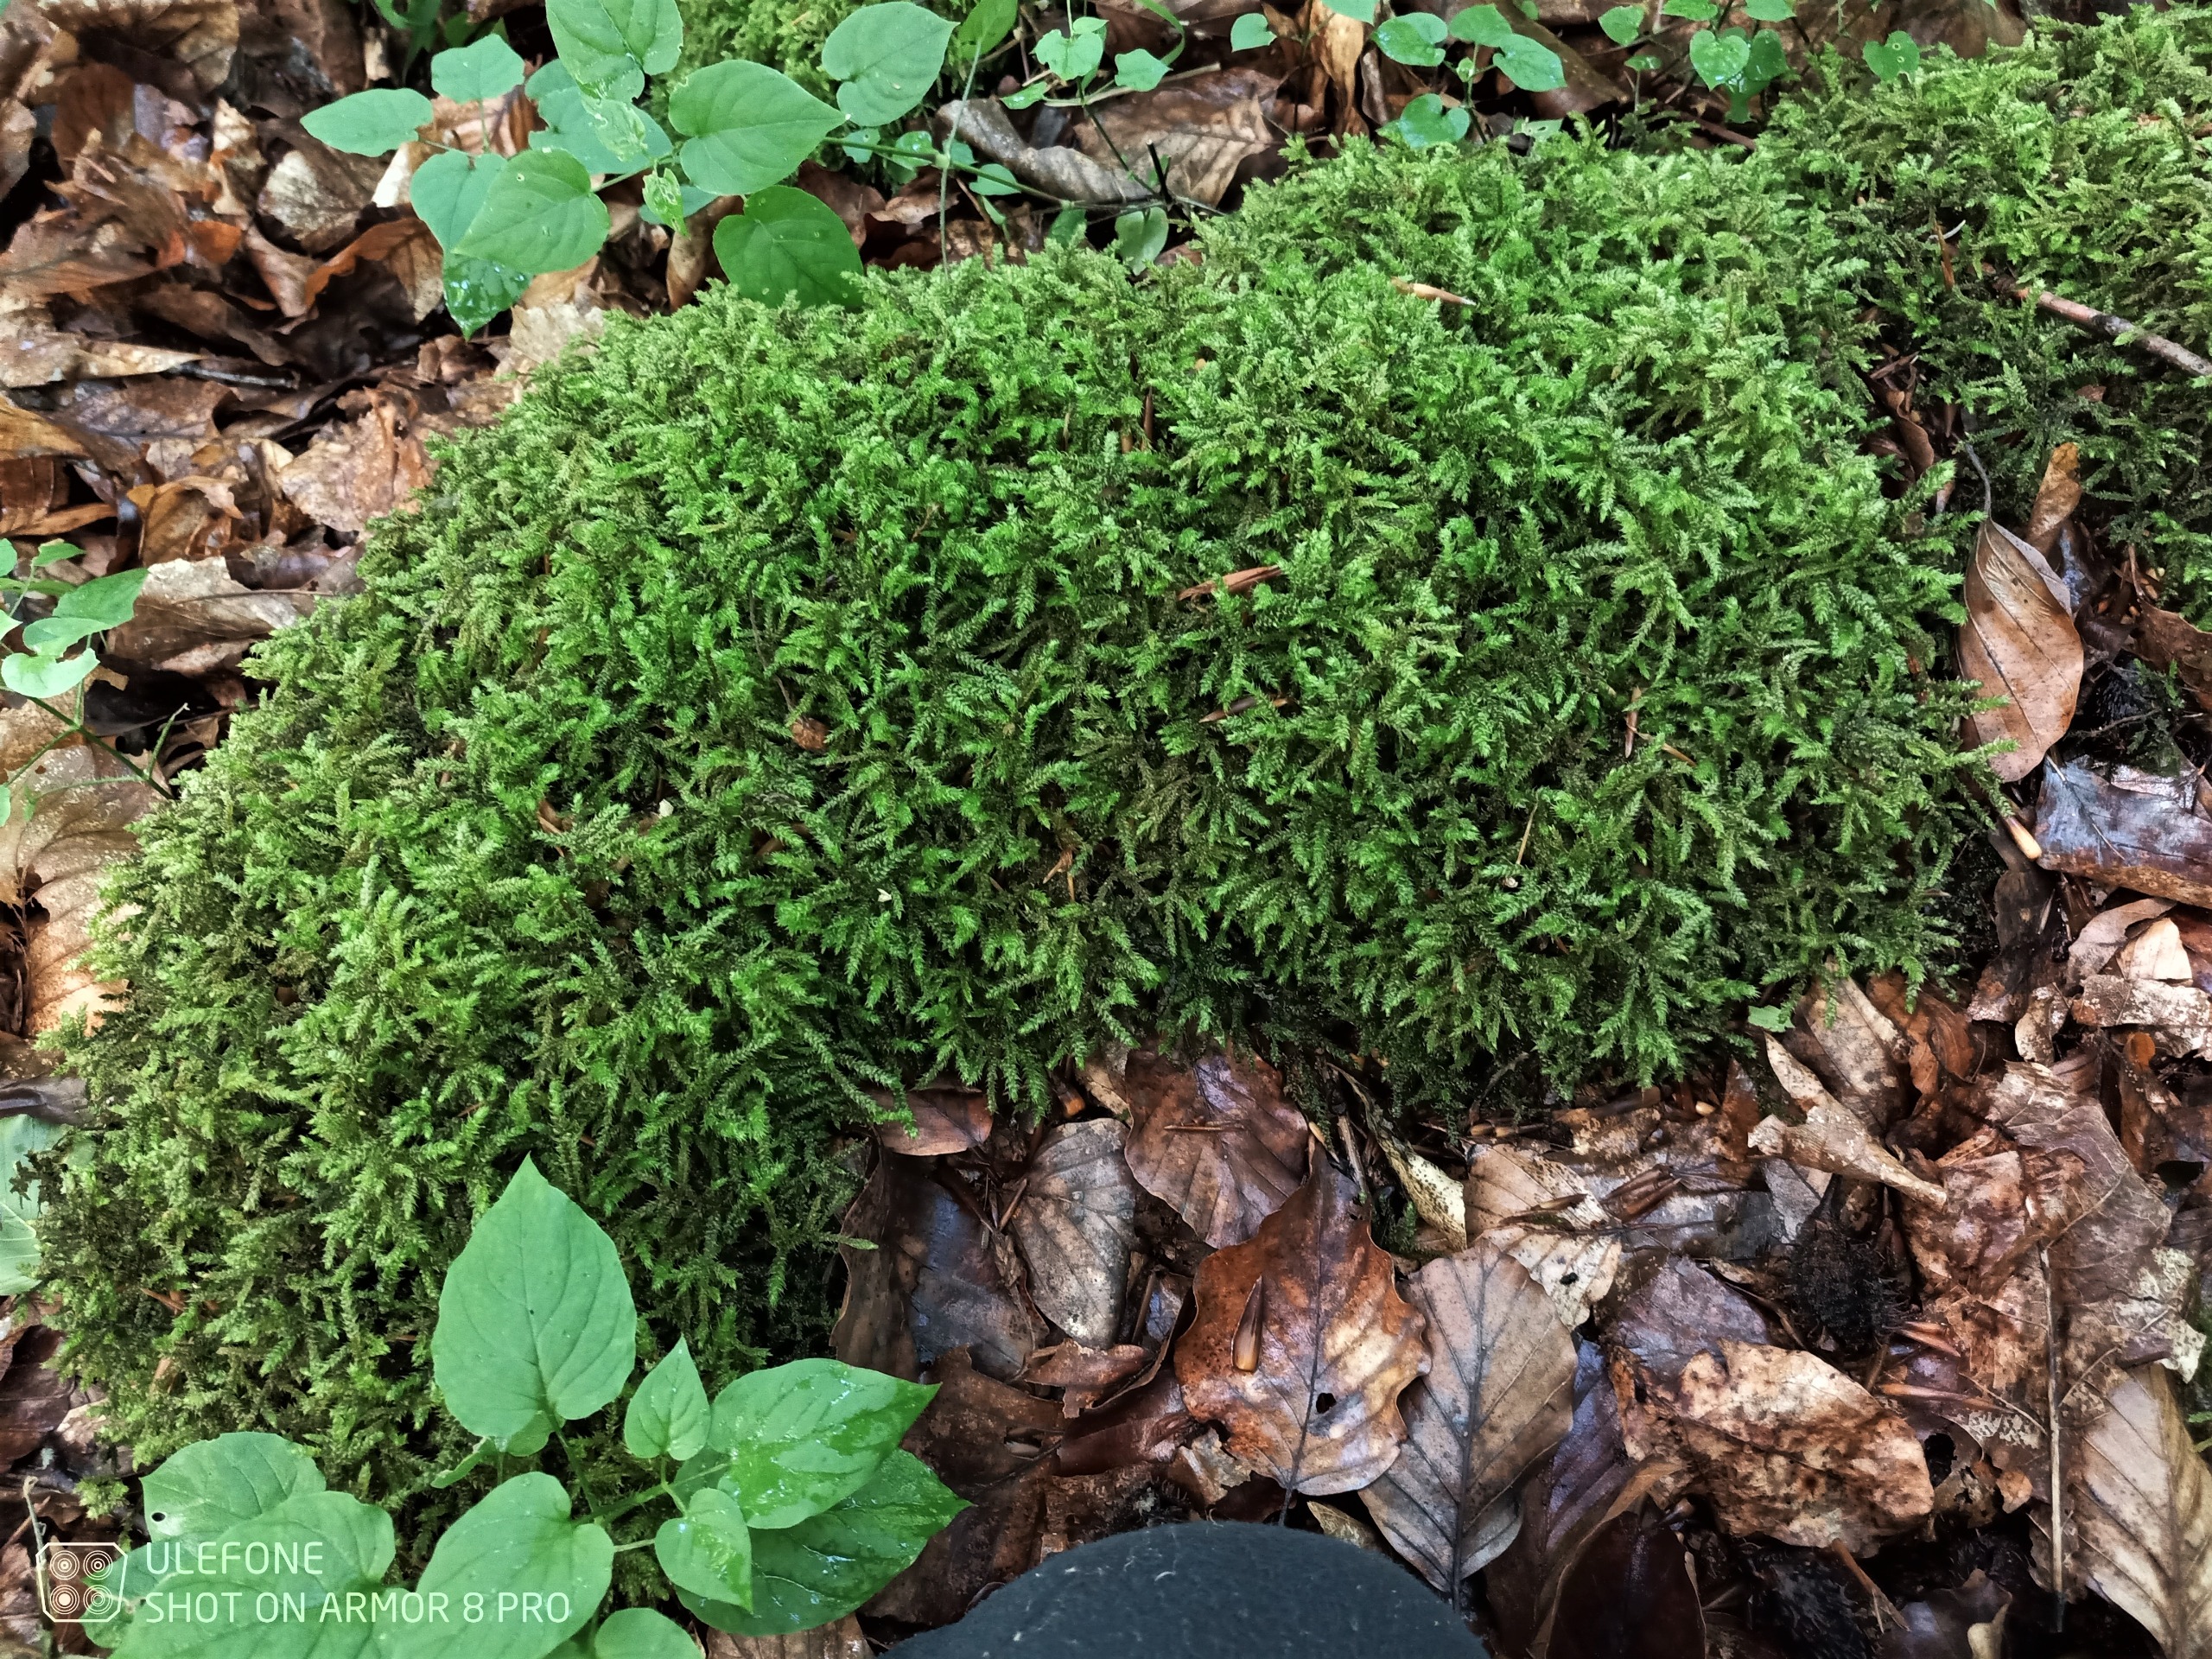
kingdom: Plantae
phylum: Bryophyta
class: Bryopsida
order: Hypnales
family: Hylocomiaceae
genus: Loeskeobryum
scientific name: Loeskeobryum brevirostre
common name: Åben etagemos
